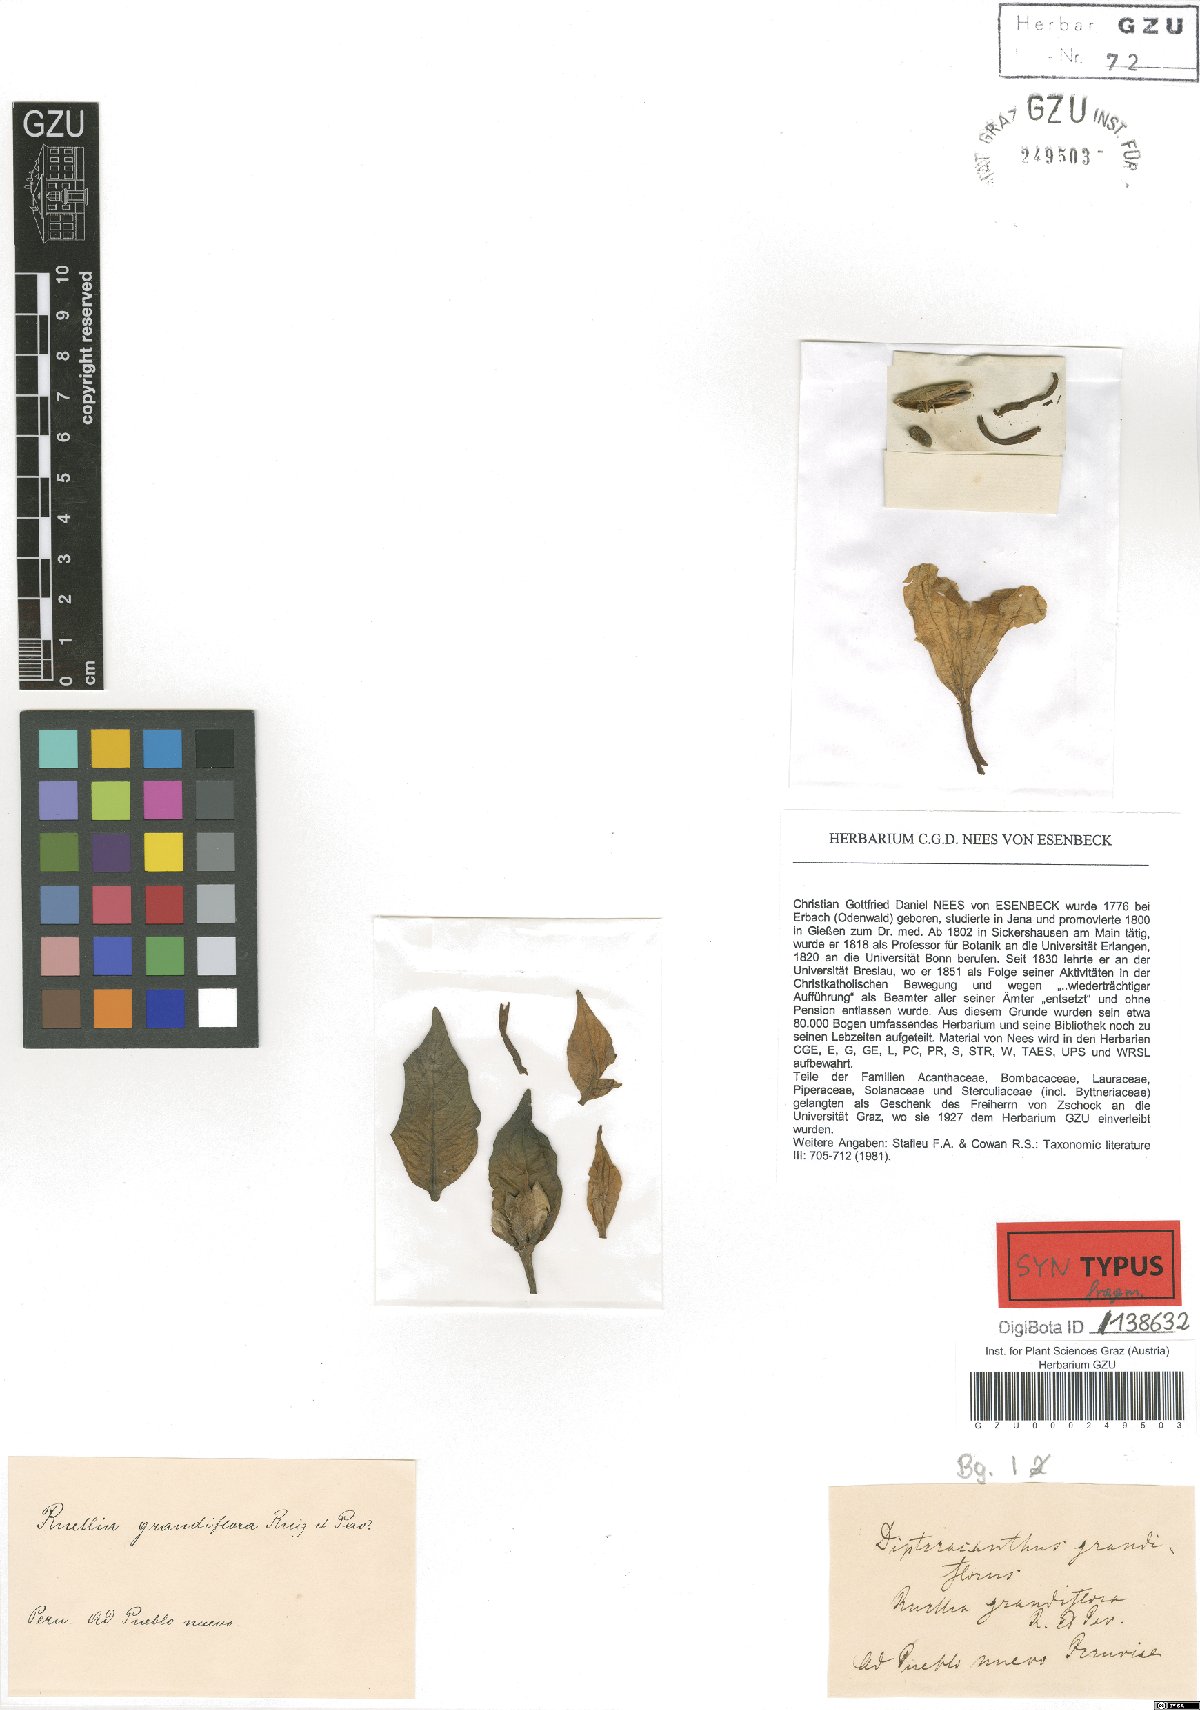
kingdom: Plantae
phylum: Tracheophyta
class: Magnoliopsida
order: Lamiales
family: Acanthaceae
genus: Ruellia
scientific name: Ruellia neoneesiana
